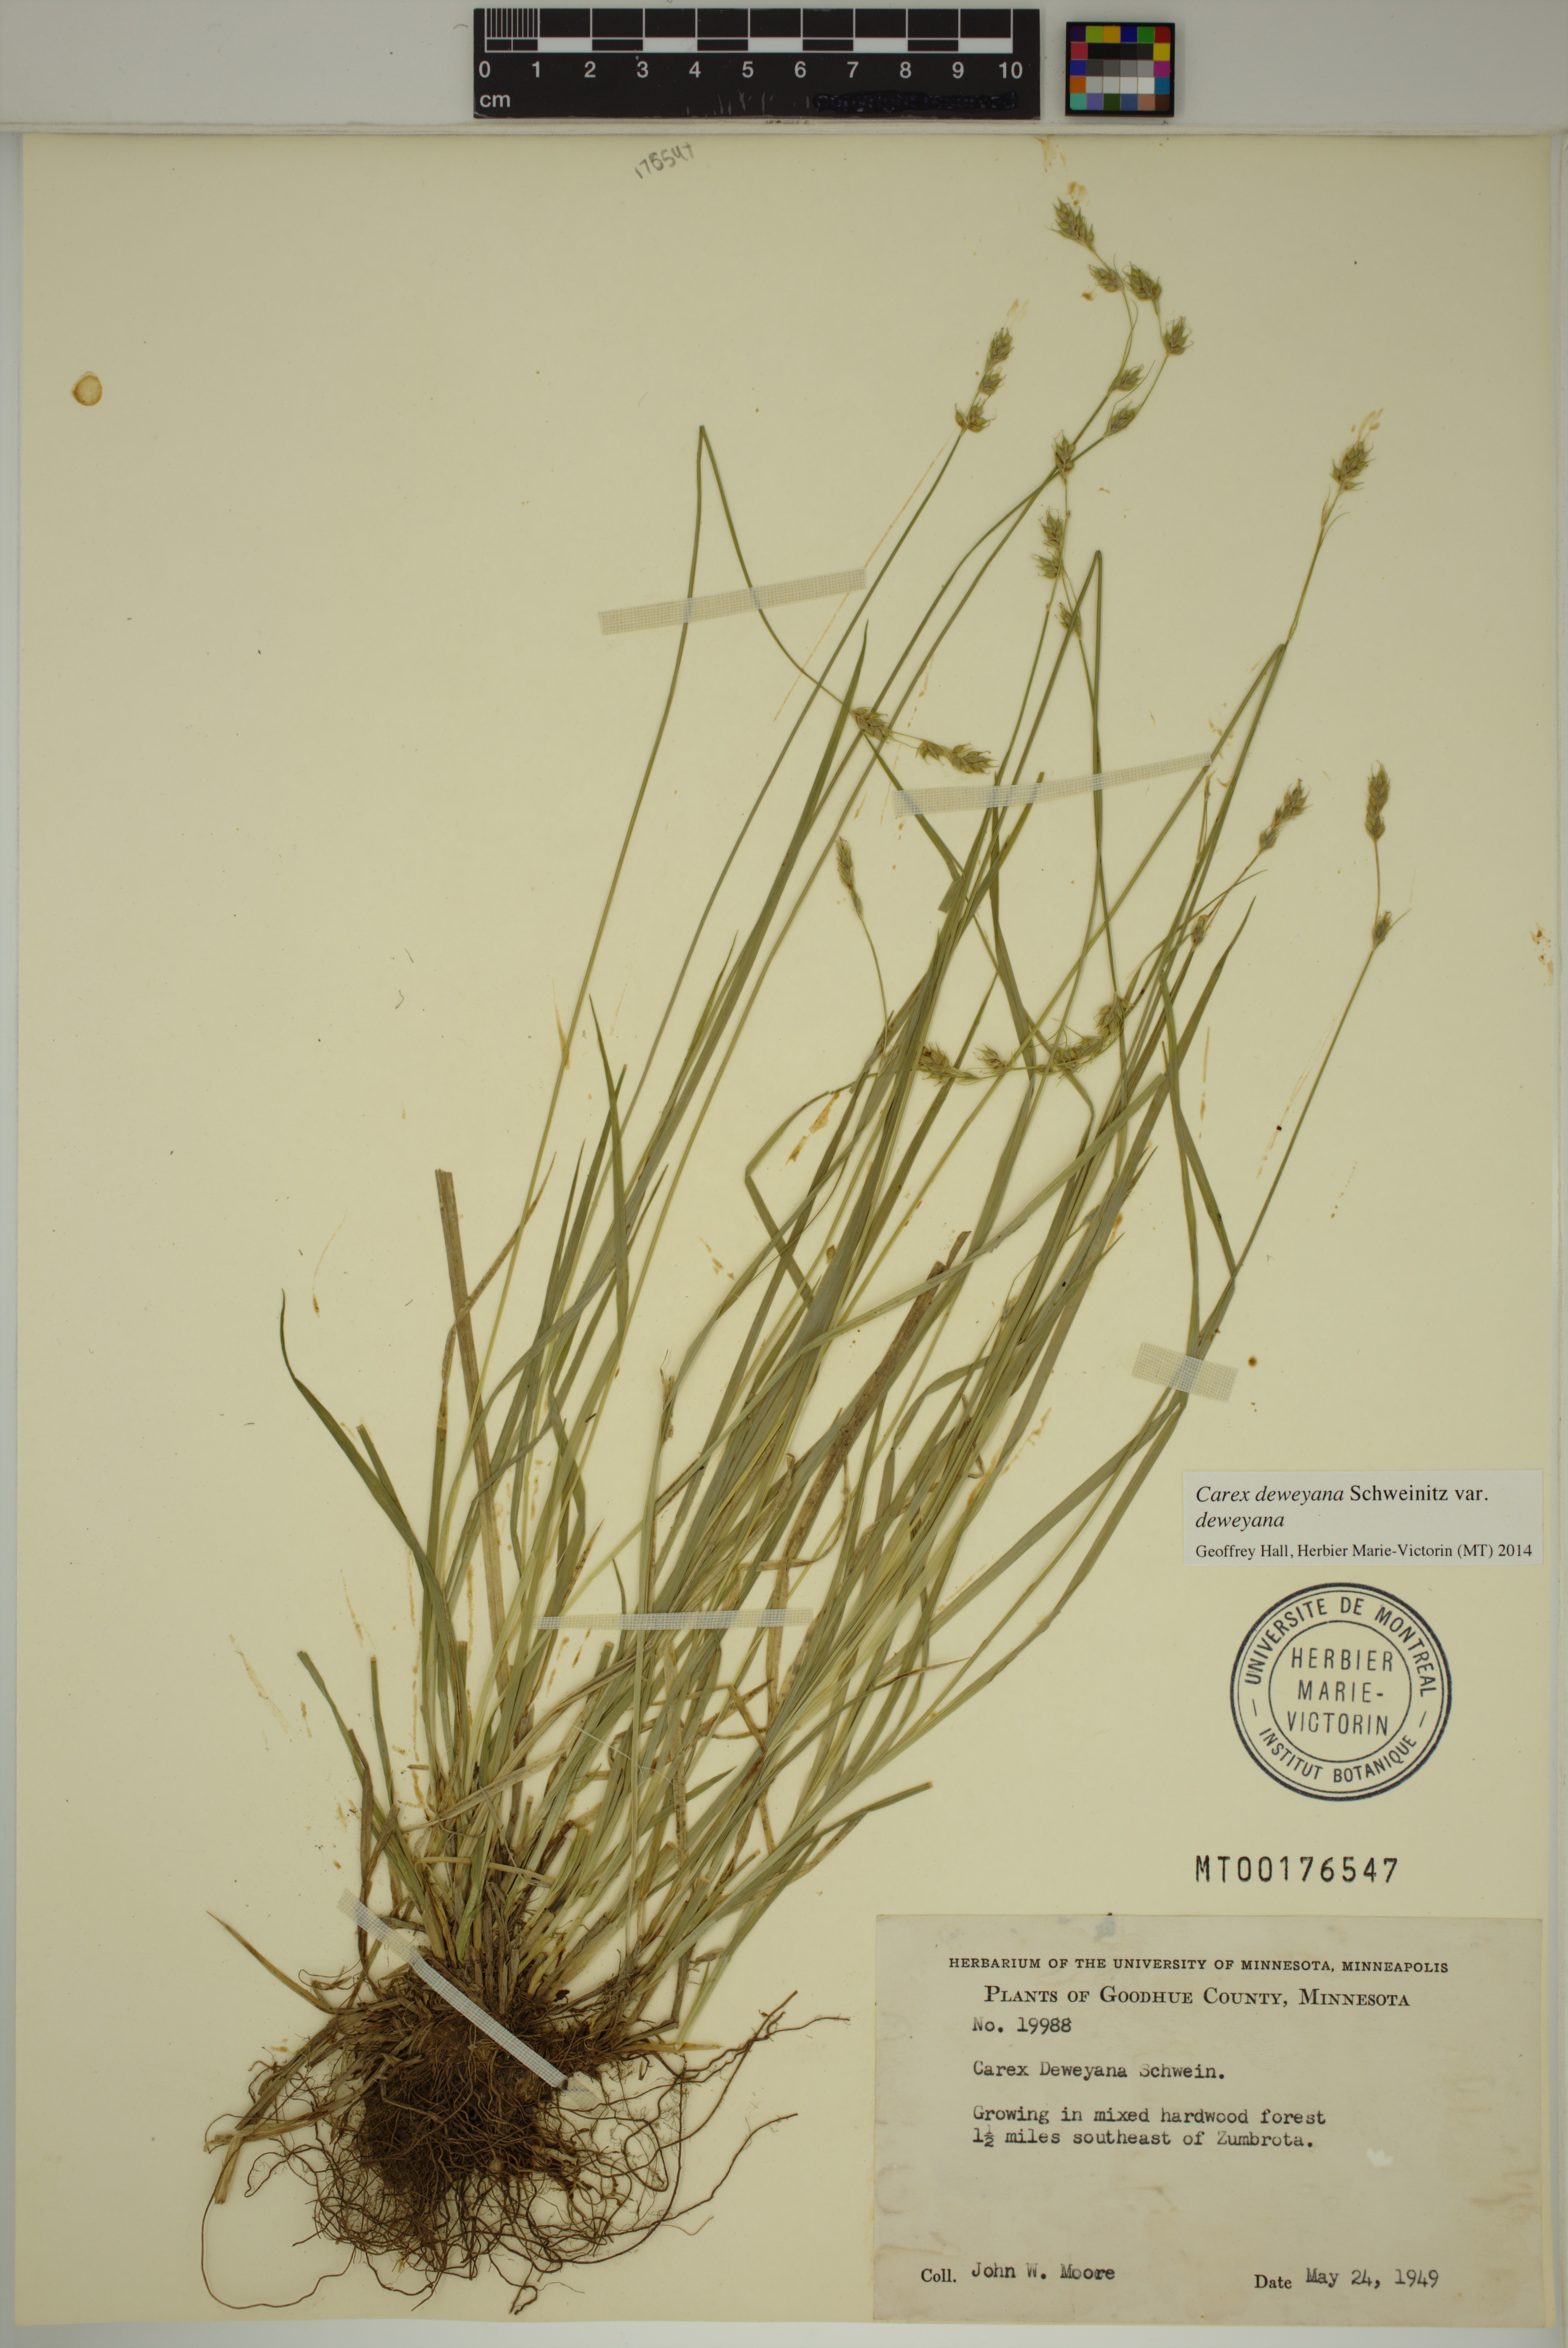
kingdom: Plantae
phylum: Tracheophyta
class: Liliopsida
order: Poales
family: Cyperaceae
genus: Carex
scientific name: Carex deweyana
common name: Dewey's sedge
